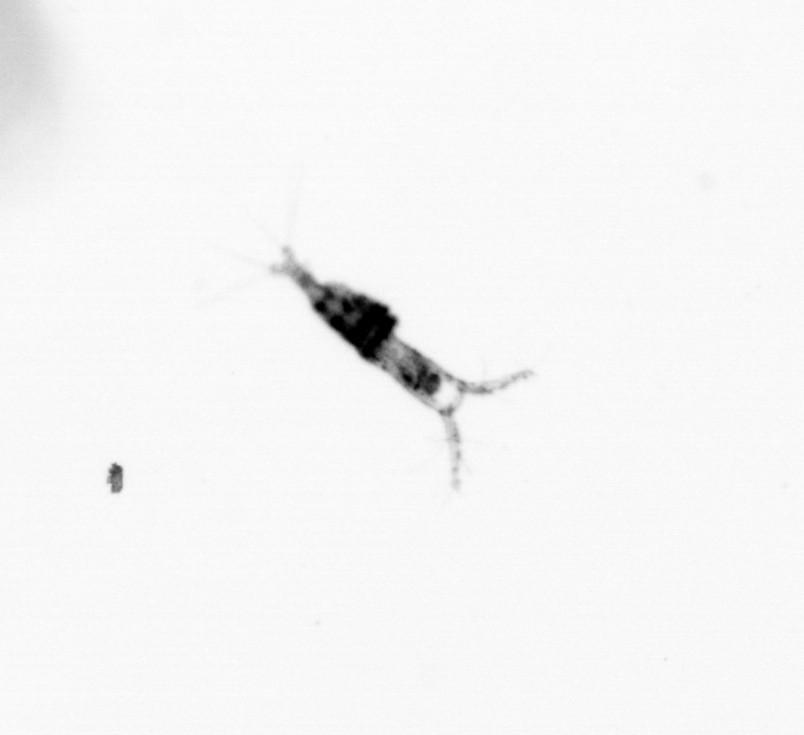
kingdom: Animalia
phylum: Arthropoda
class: Copepoda
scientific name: Copepoda
